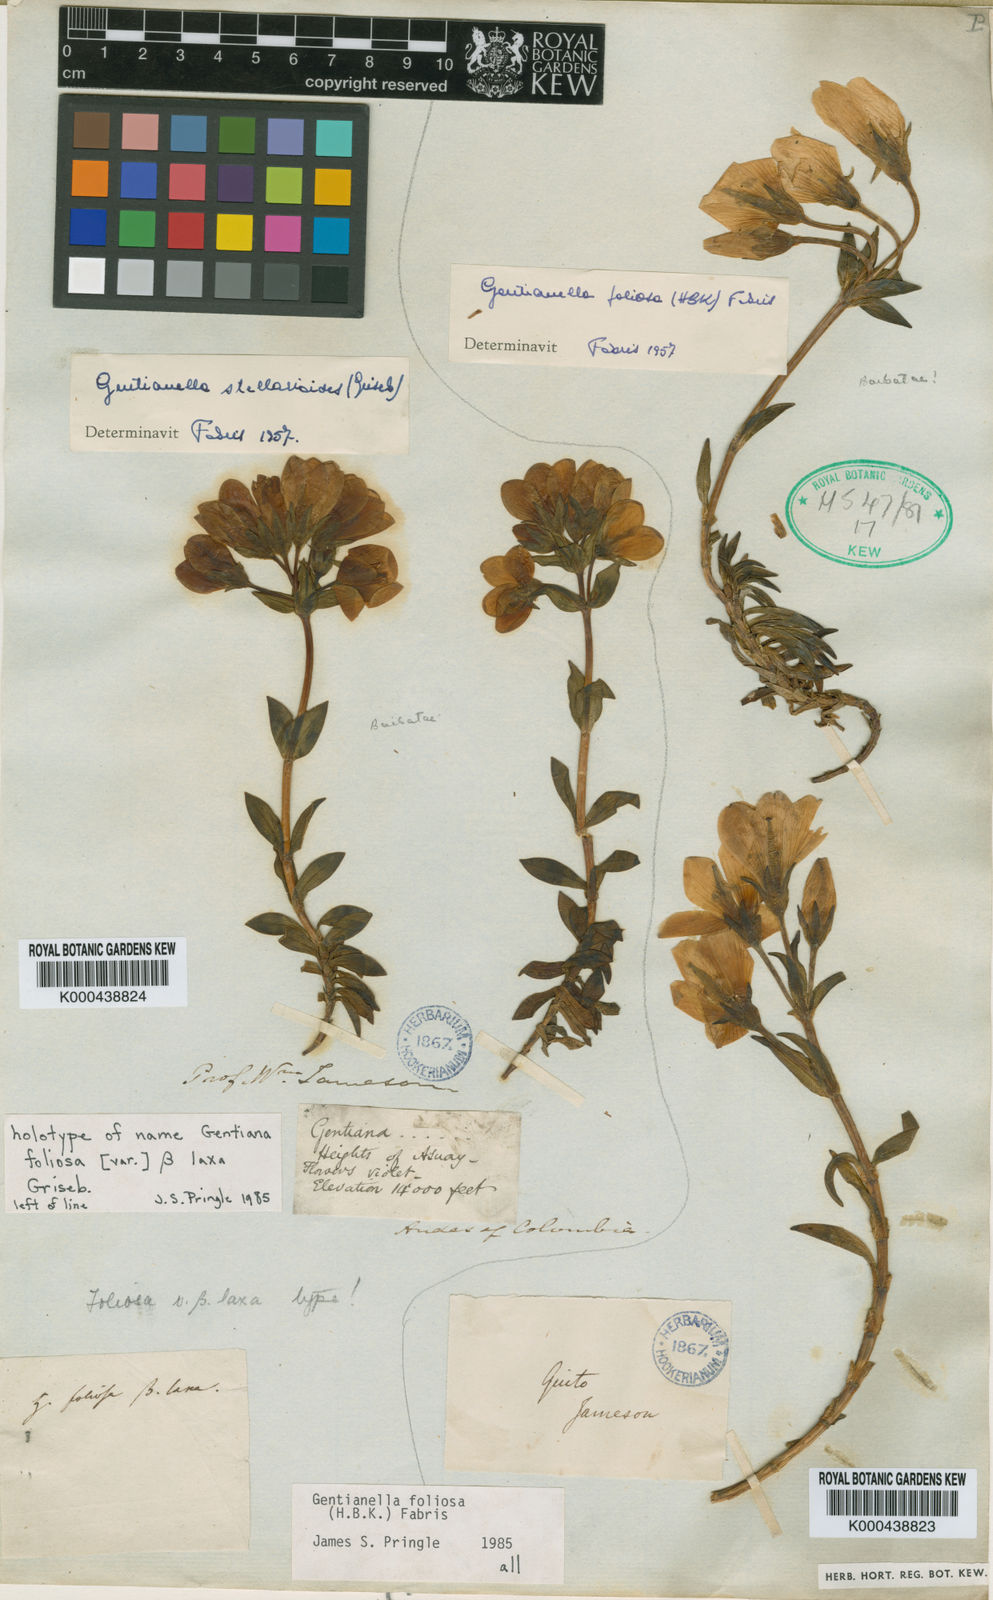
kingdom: Plantae
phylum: Tracheophyta
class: Magnoliopsida
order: Gentianales
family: Gentianaceae
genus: Gentianella
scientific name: Gentianella foliosa
